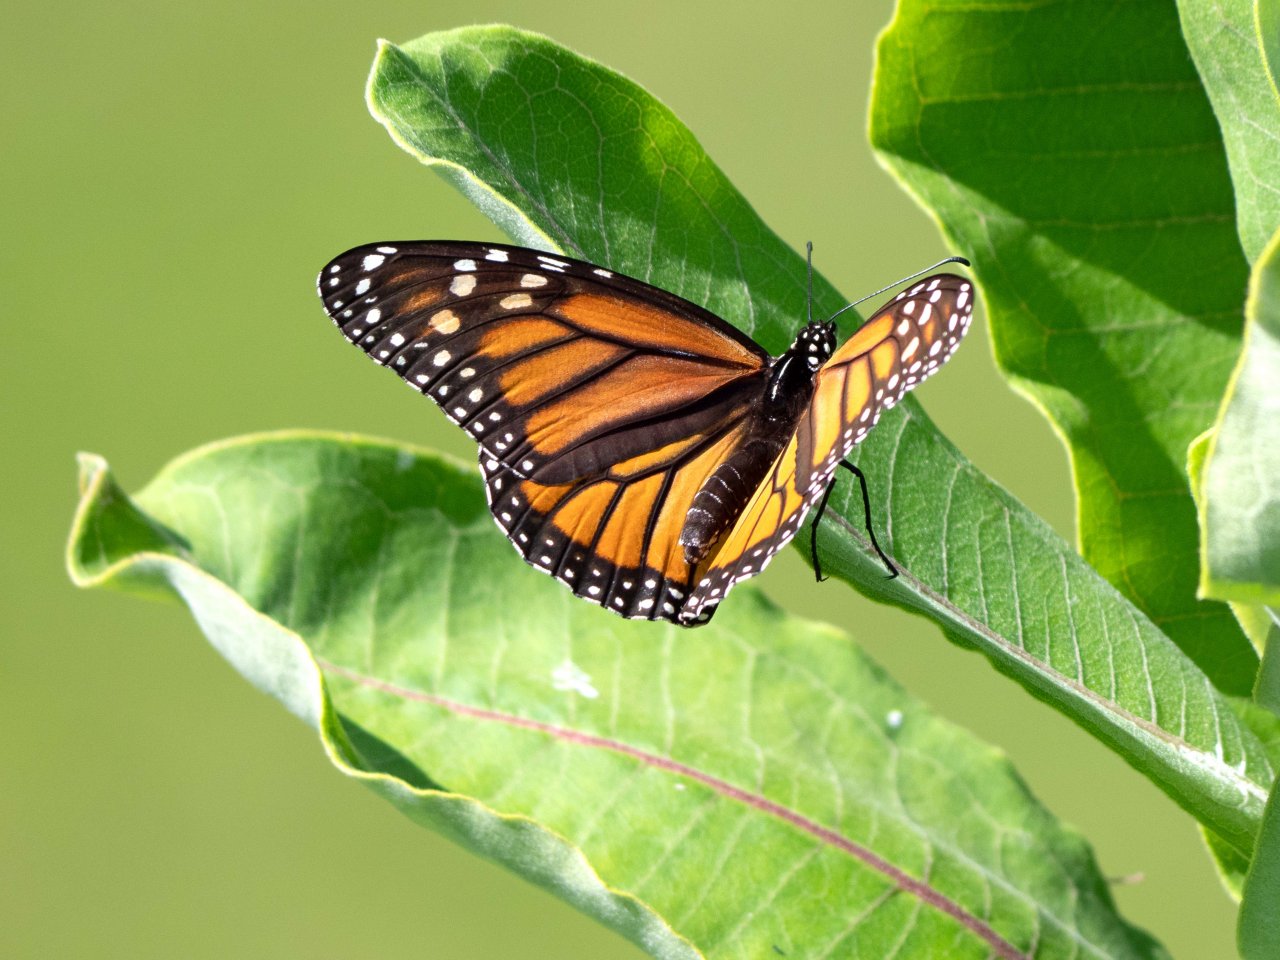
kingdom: Animalia
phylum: Arthropoda
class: Insecta
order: Lepidoptera
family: Nymphalidae
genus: Danaus
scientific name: Danaus plexippus
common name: Monarch
